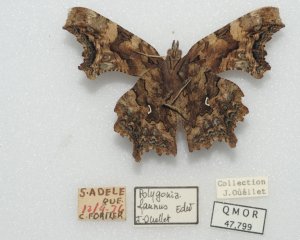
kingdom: Animalia
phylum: Arthropoda
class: Insecta
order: Lepidoptera
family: Nymphalidae
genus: Polygonia
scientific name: Polygonia faunus
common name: Green Comma
